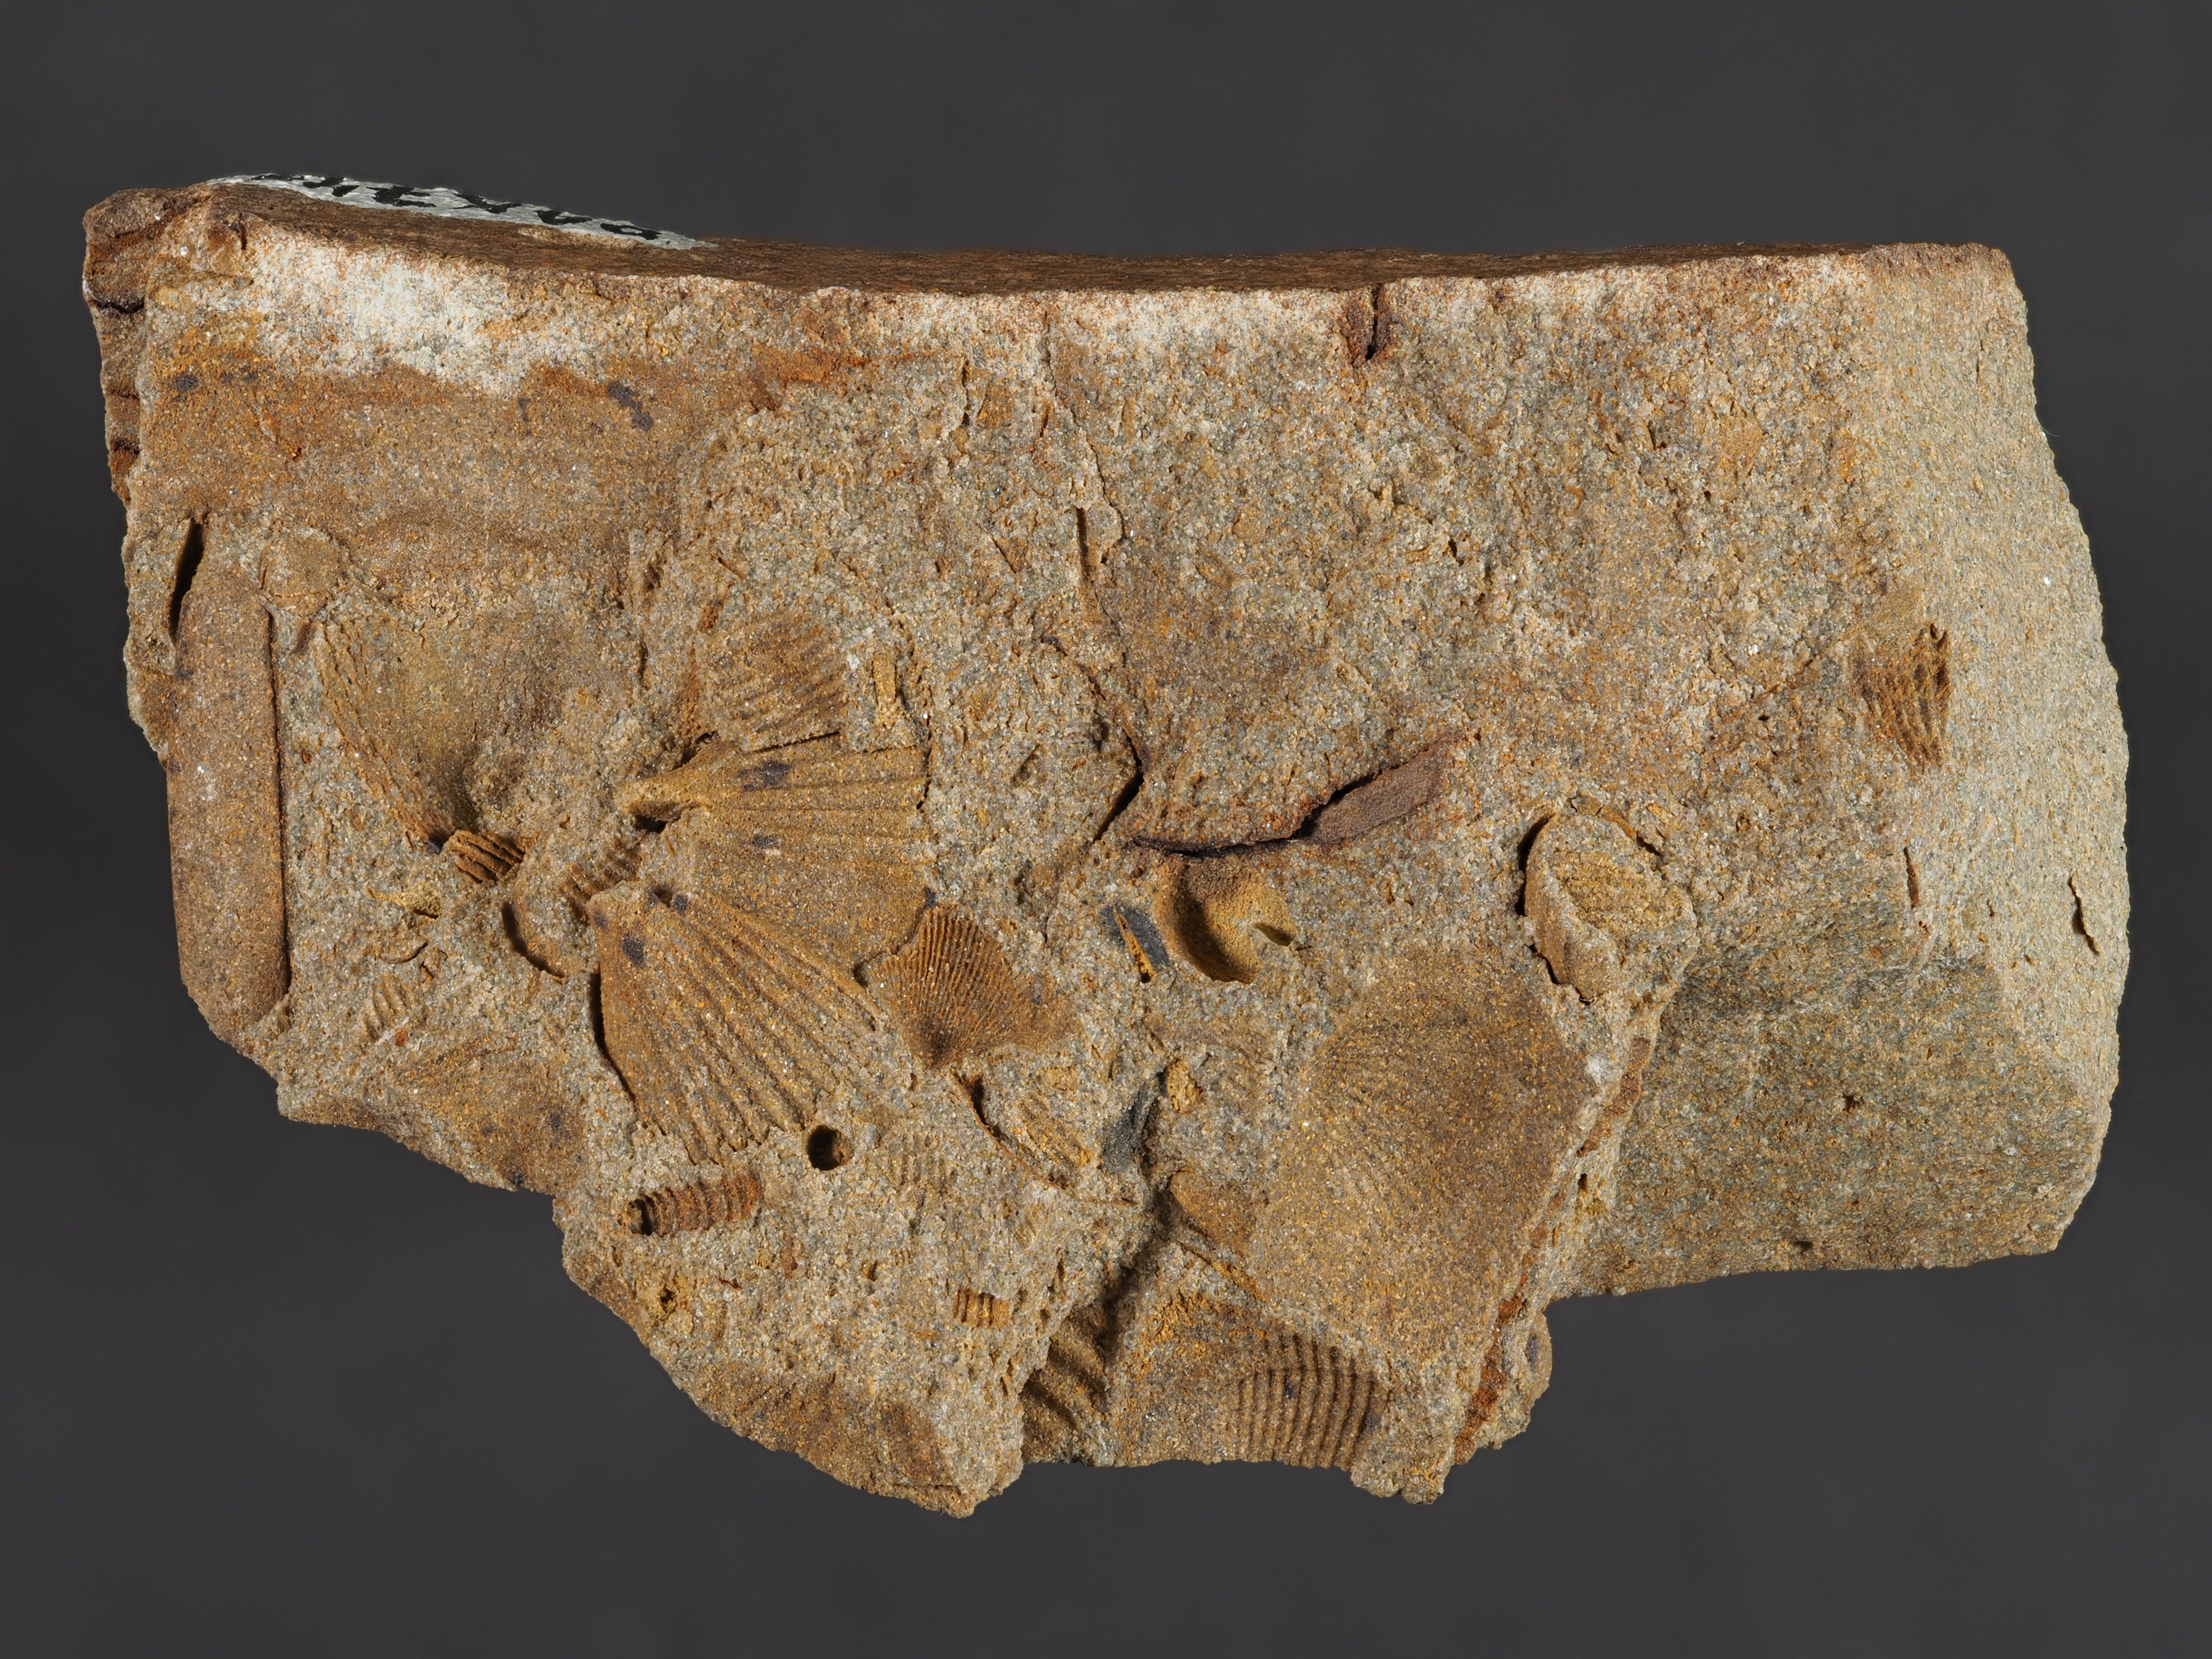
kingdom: Animalia
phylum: Brachiopoda
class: Rhynchonellata
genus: Tenuicostella
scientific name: Tenuicostella
